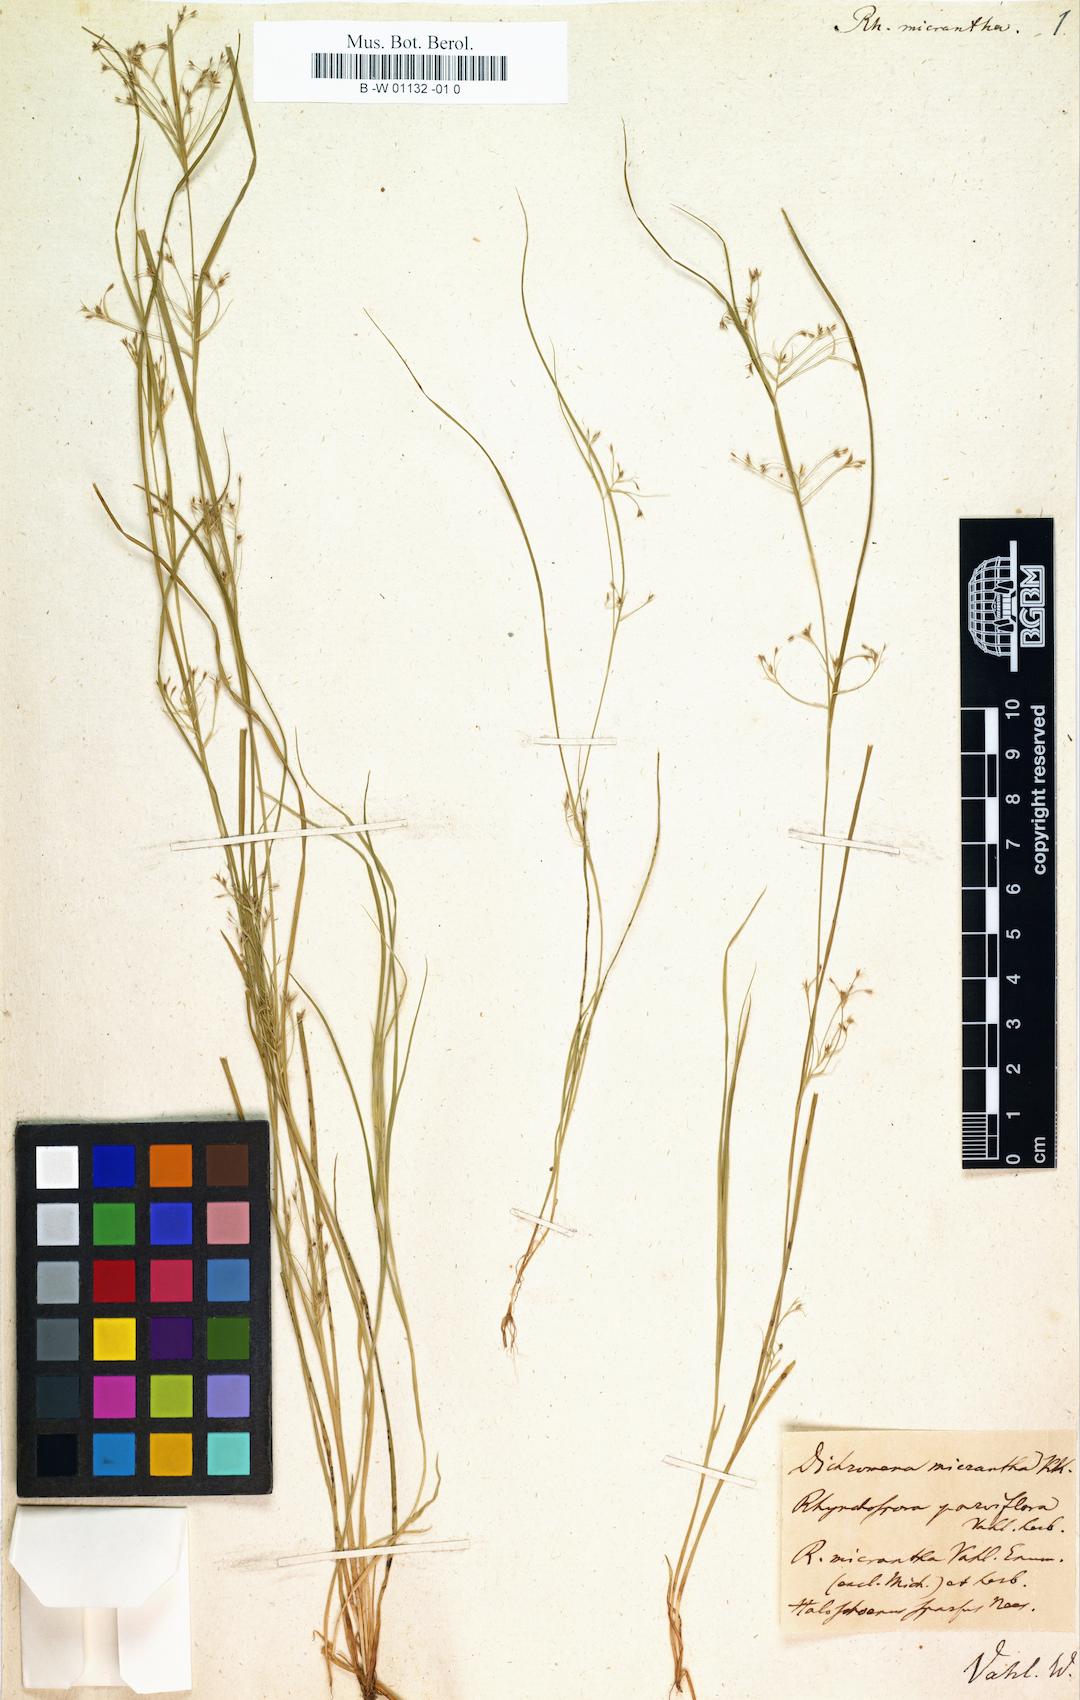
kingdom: Plantae
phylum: Tracheophyta
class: Liliopsida
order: Poales
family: Cyperaceae
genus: Rhynchospora
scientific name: Rhynchospora torreyana
